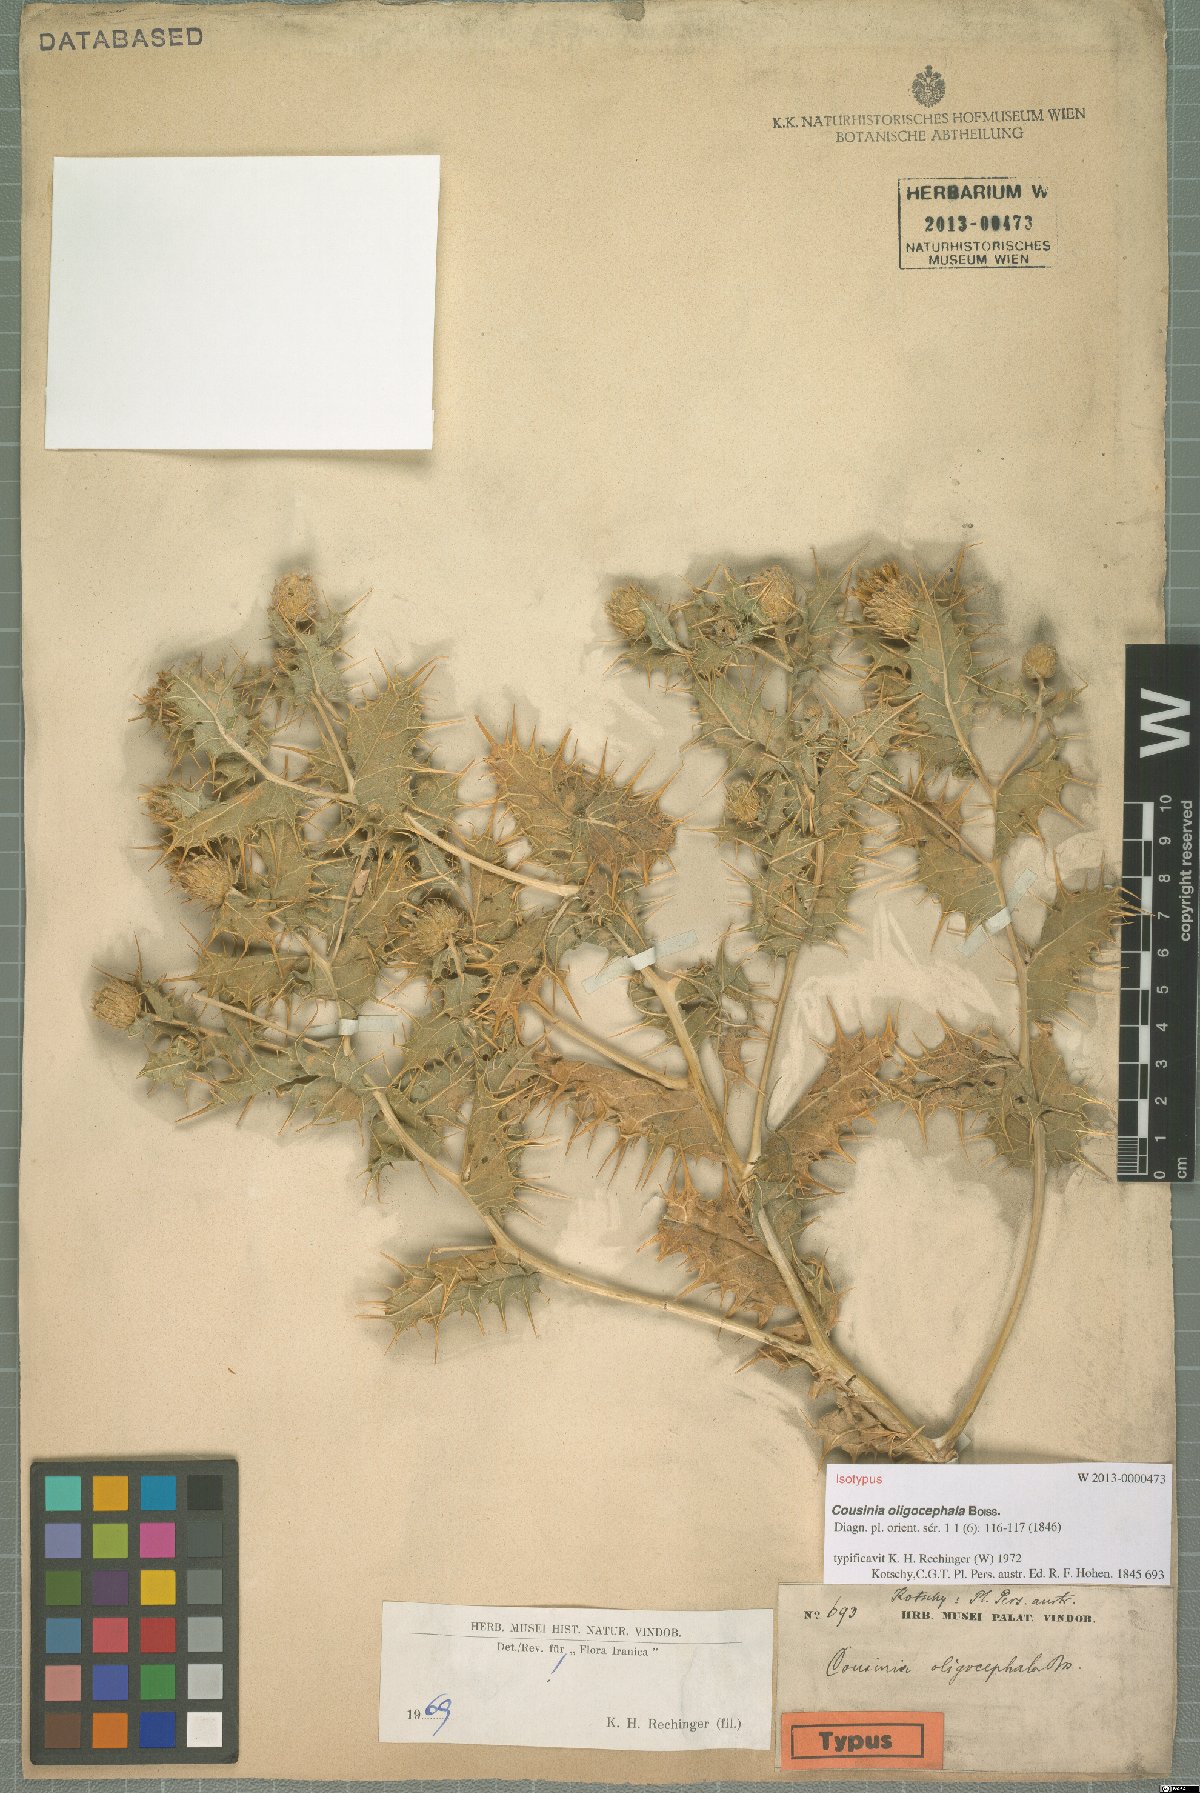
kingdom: Plantae
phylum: Tracheophyta
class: Magnoliopsida
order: Asterales
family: Asteraceae
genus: Cousinia
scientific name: Cousinia oligocephala
